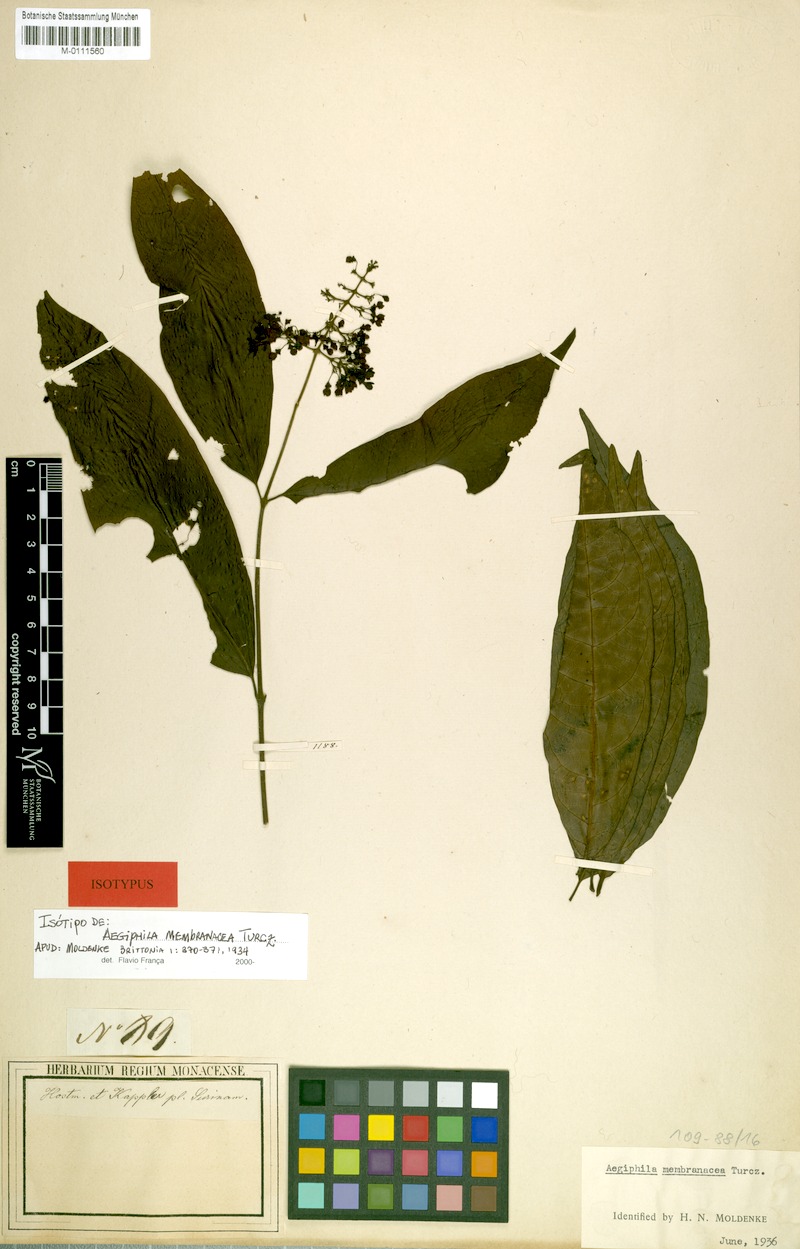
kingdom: Plantae
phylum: Tracheophyta
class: Magnoliopsida
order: Lamiales
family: Lamiaceae
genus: Aegiphila
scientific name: Aegiphila membranacea
